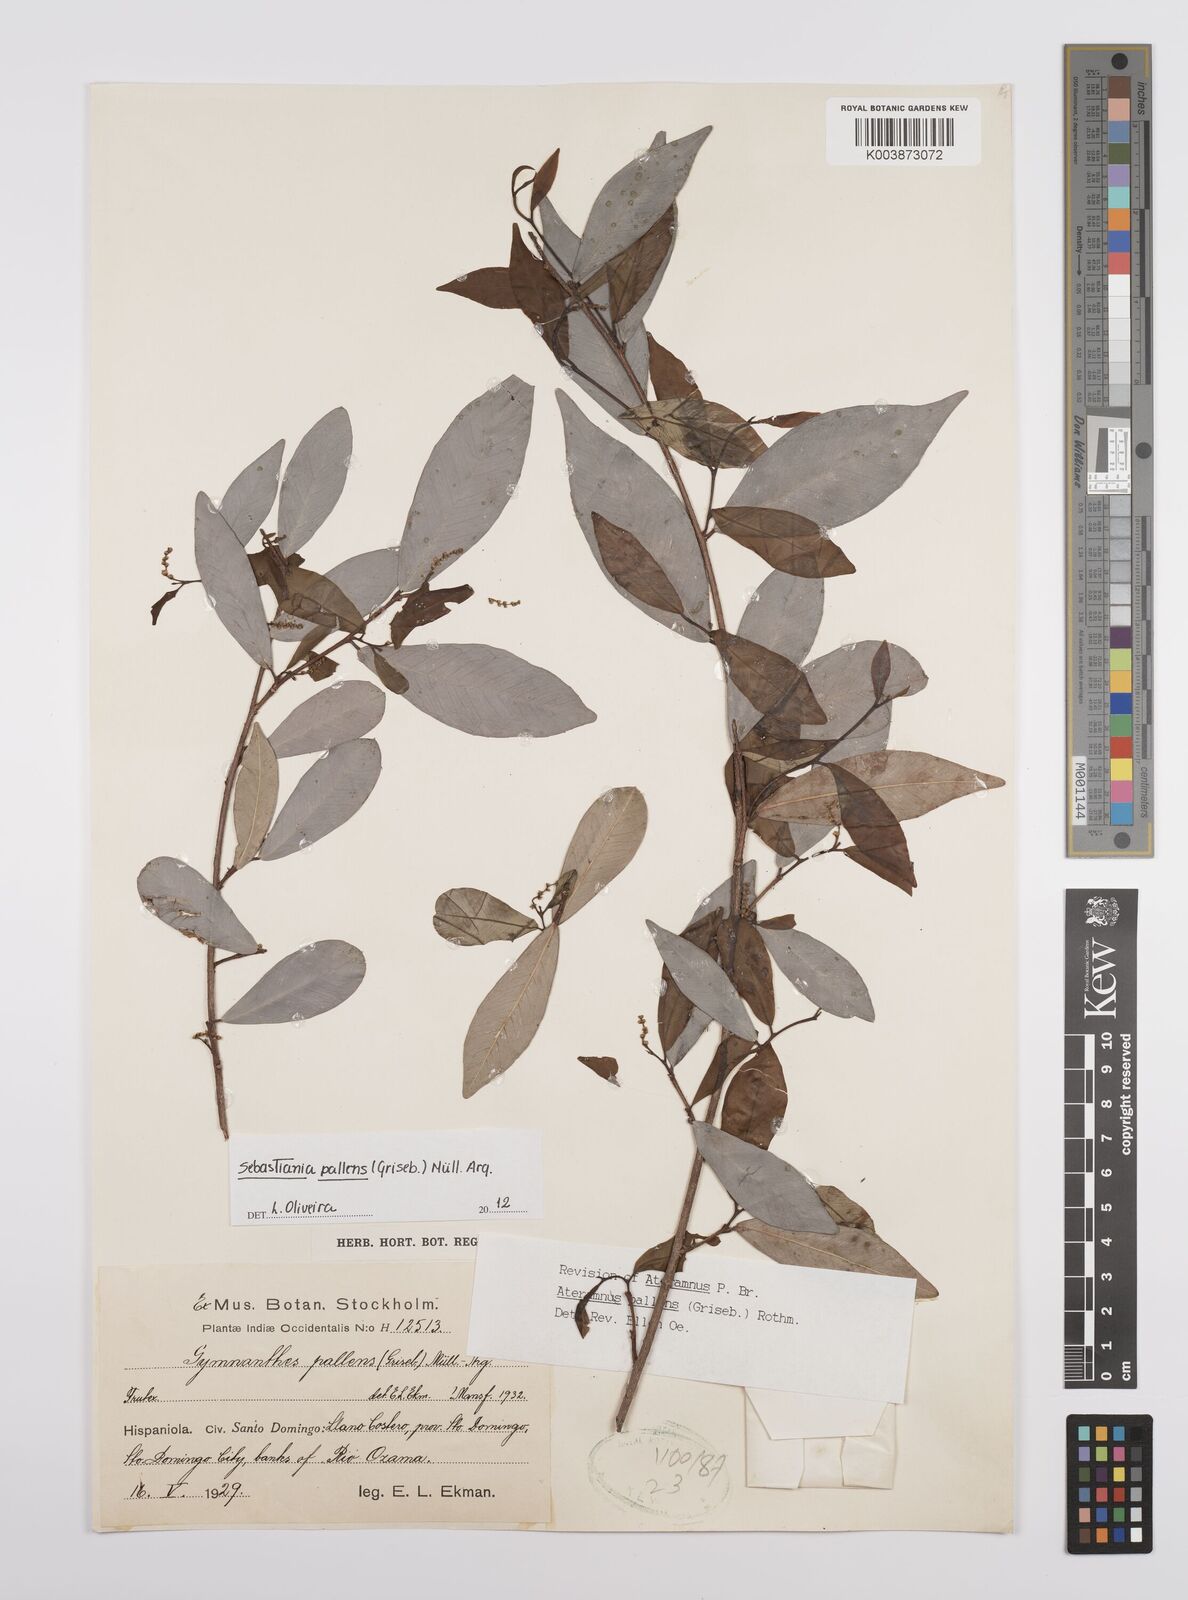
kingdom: Plantae
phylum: Tracheophyta
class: Magnoliopsida
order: Malpighiales
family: Euphorbiaceae
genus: Gymnanthes
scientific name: Gymnanthes pallens
